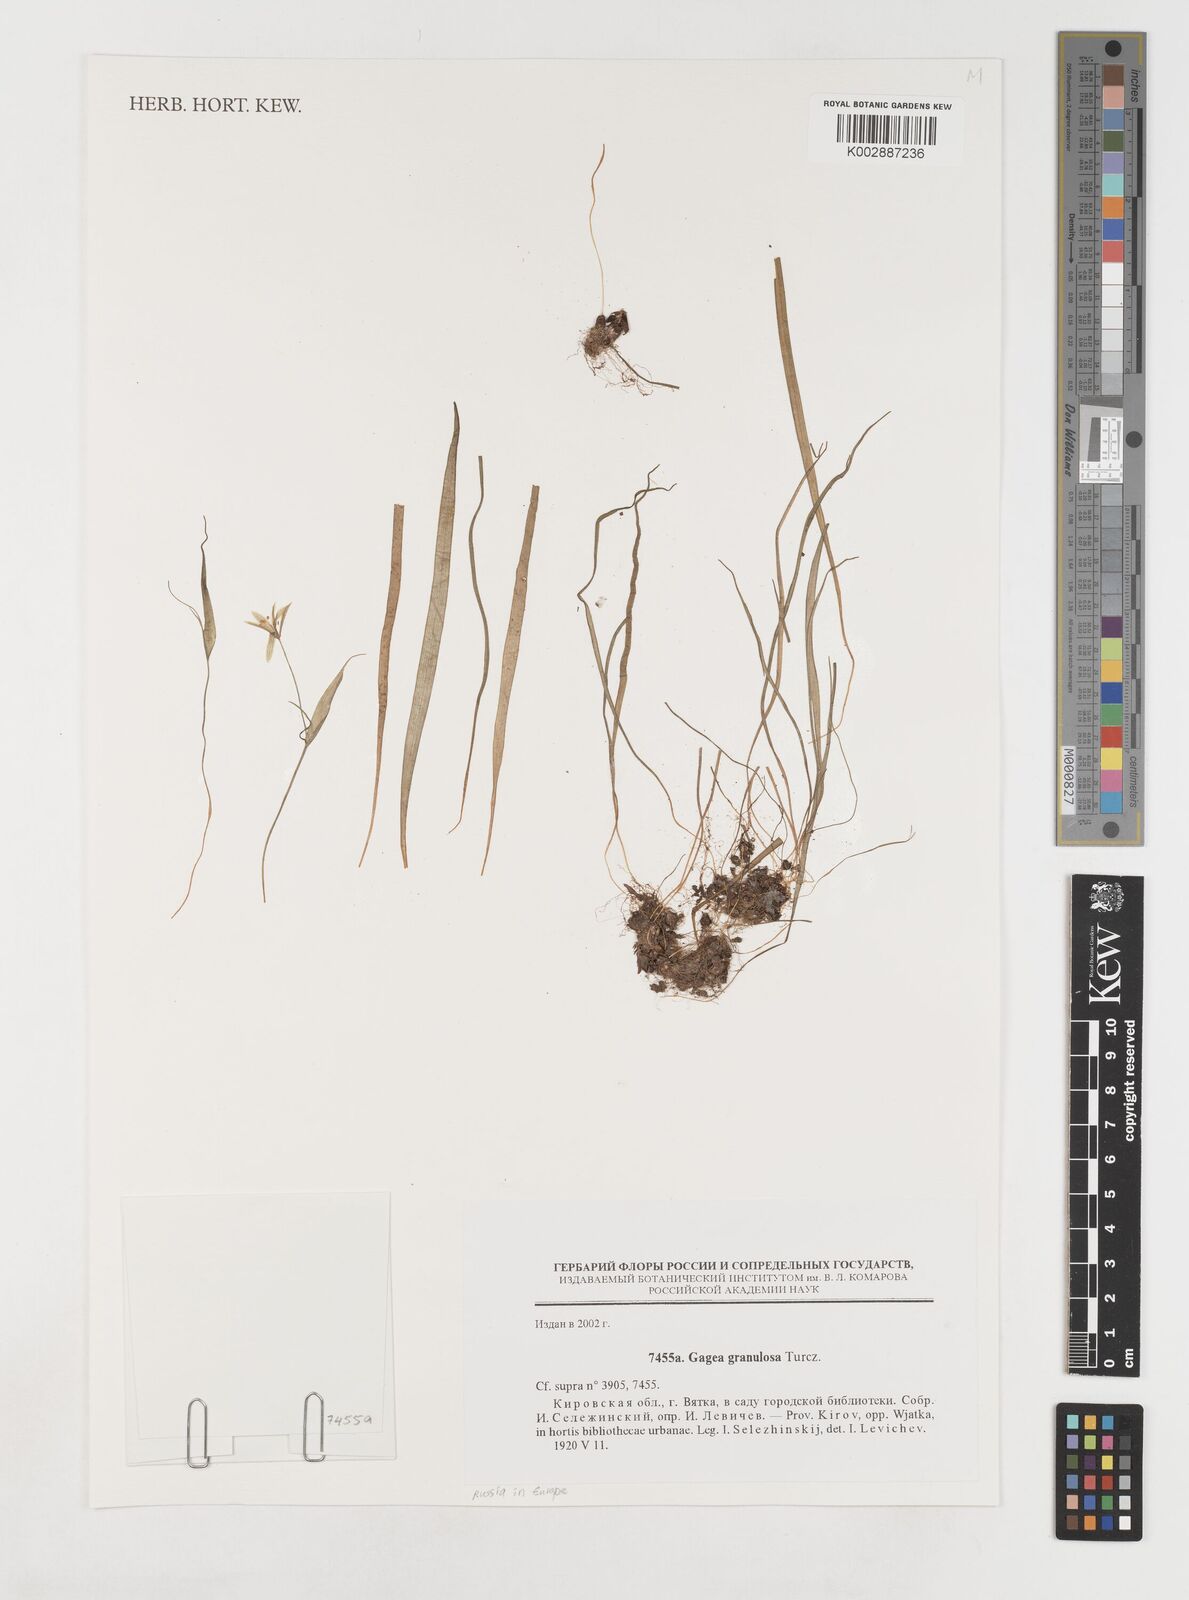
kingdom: Plantae
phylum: Tracheophyta
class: Liliopsida
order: Liliales
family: Liliaceae
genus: Gagea
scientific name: Gagea granulosa
